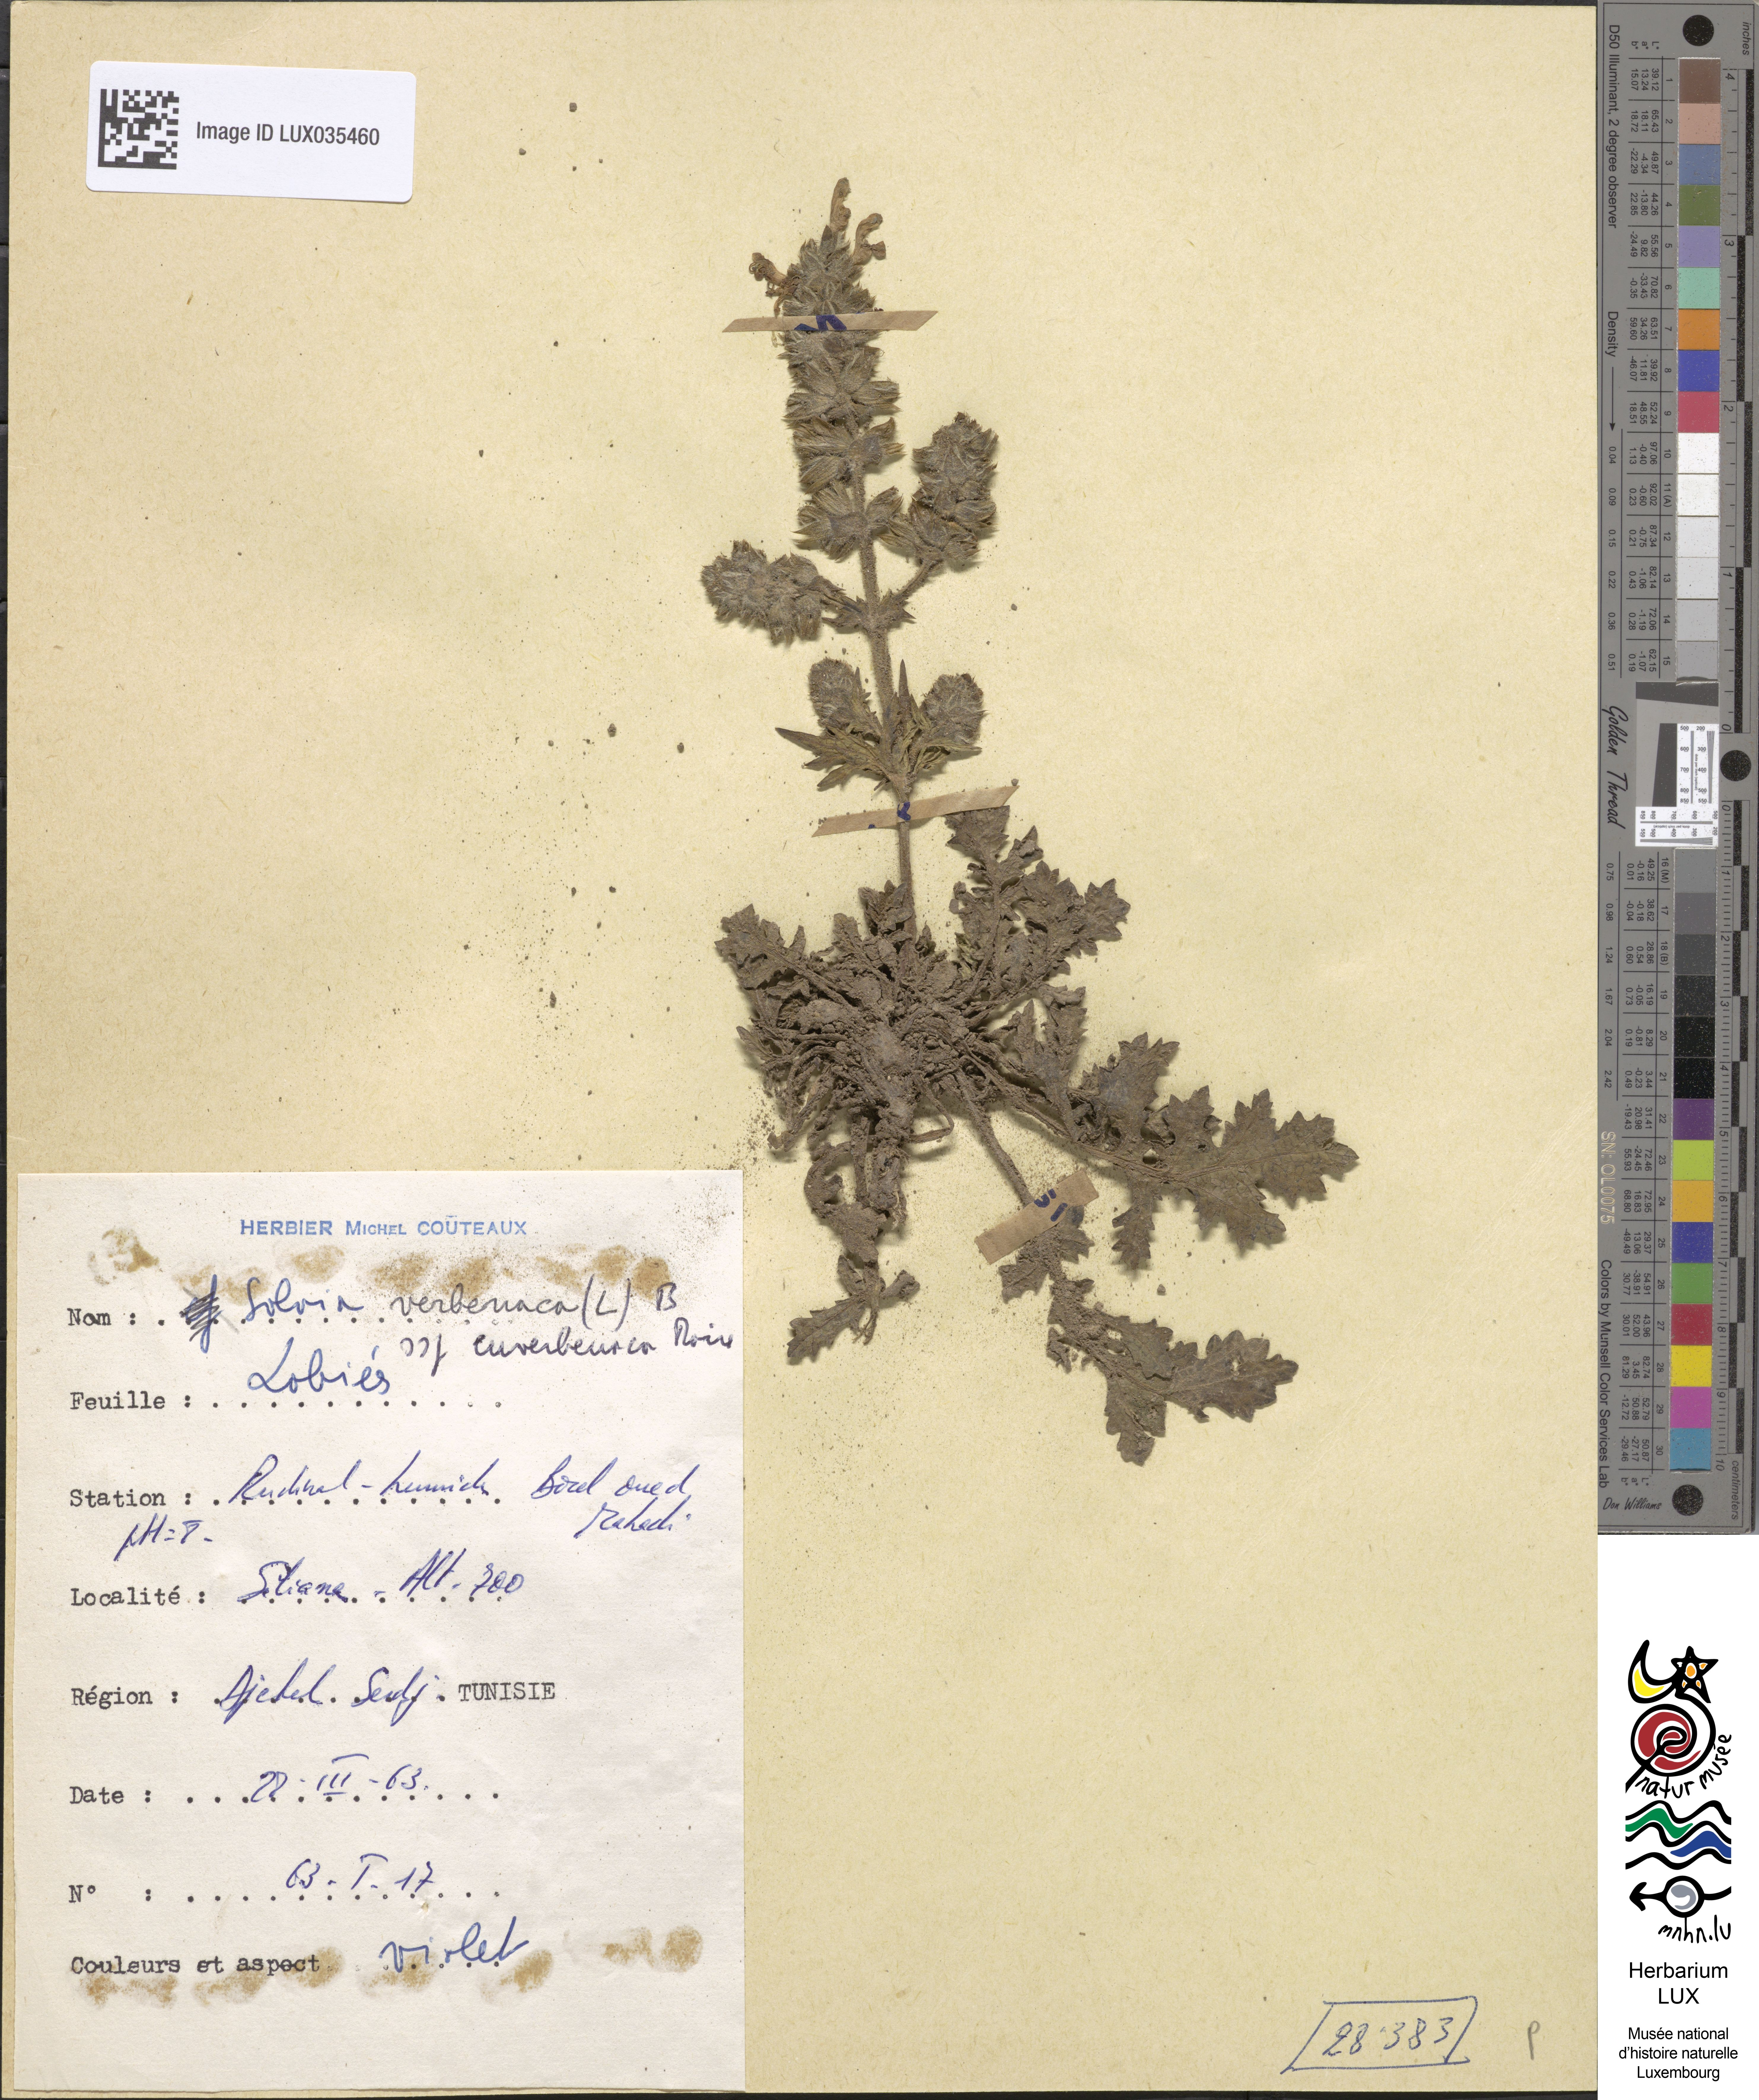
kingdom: Plantae
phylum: Tracheophyta
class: Magnoliopsida
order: Lamiales
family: Lamiaceae
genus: Salvia
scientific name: Salvia verbenaca
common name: Wild clary
